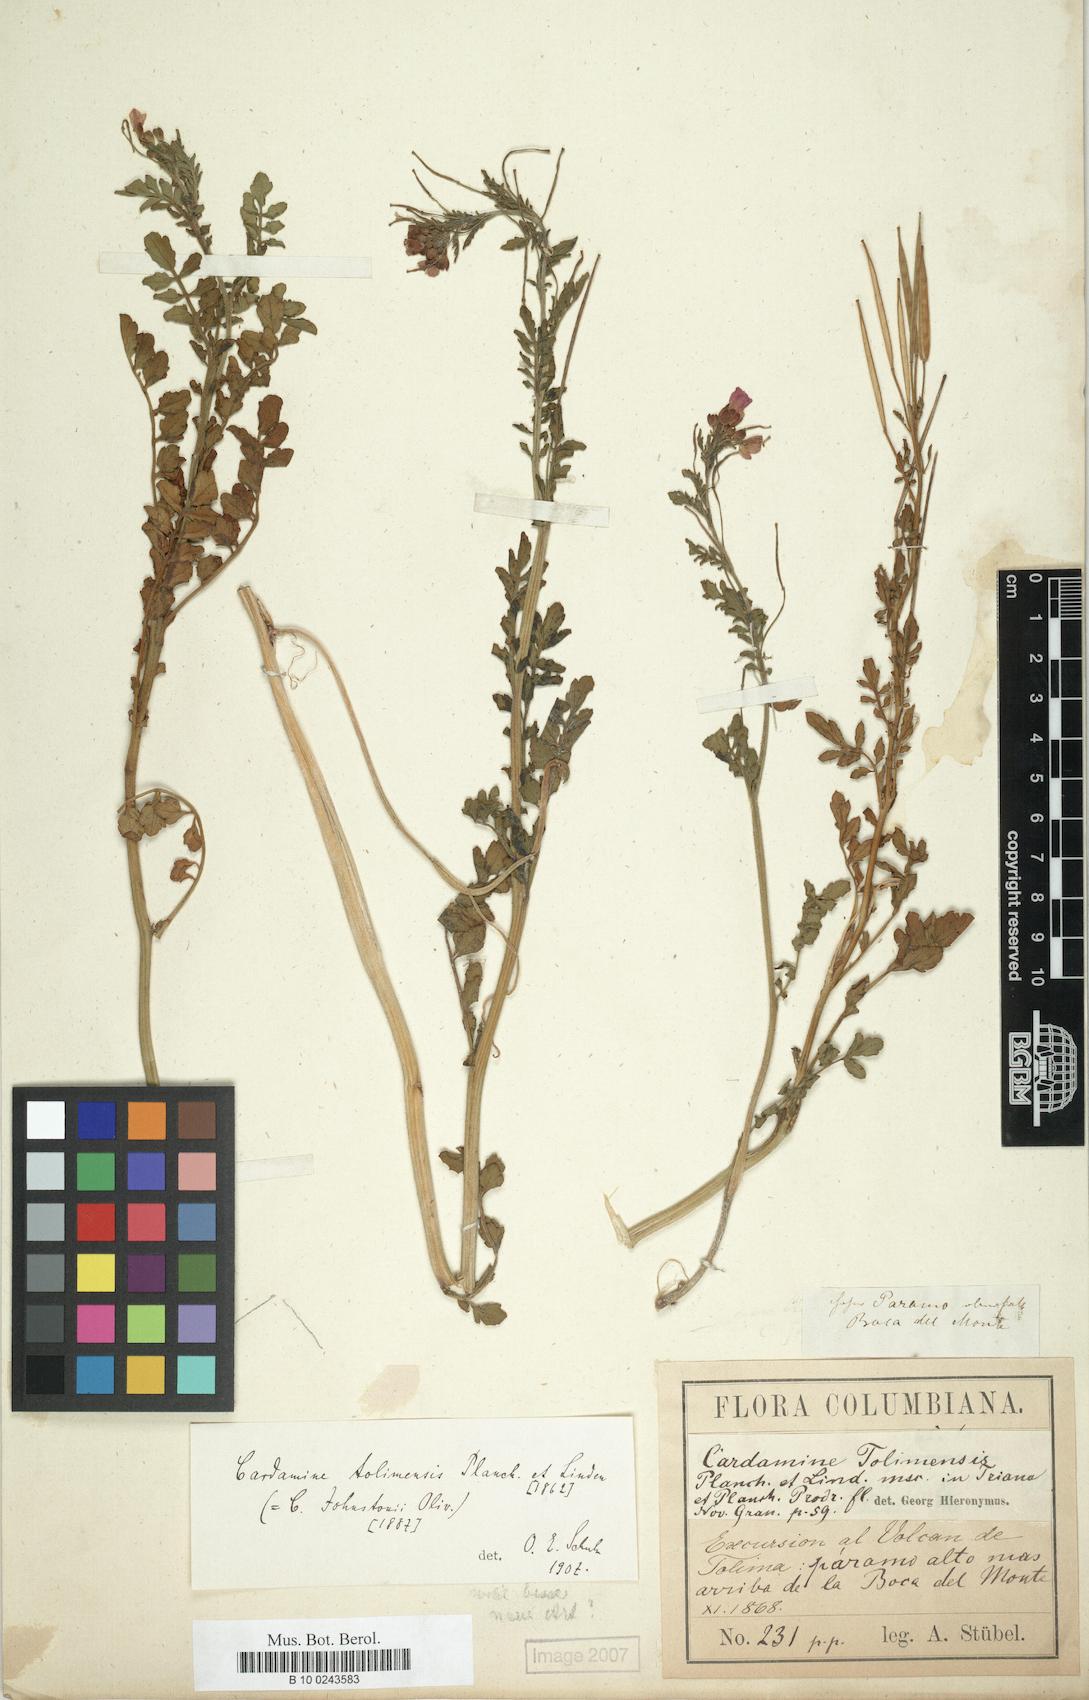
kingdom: Plantae
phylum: Tracheophyta
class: Magnoliopsida
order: Brassicales
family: Brassicaceae
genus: Cardamine
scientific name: Cardamine jamesonii
